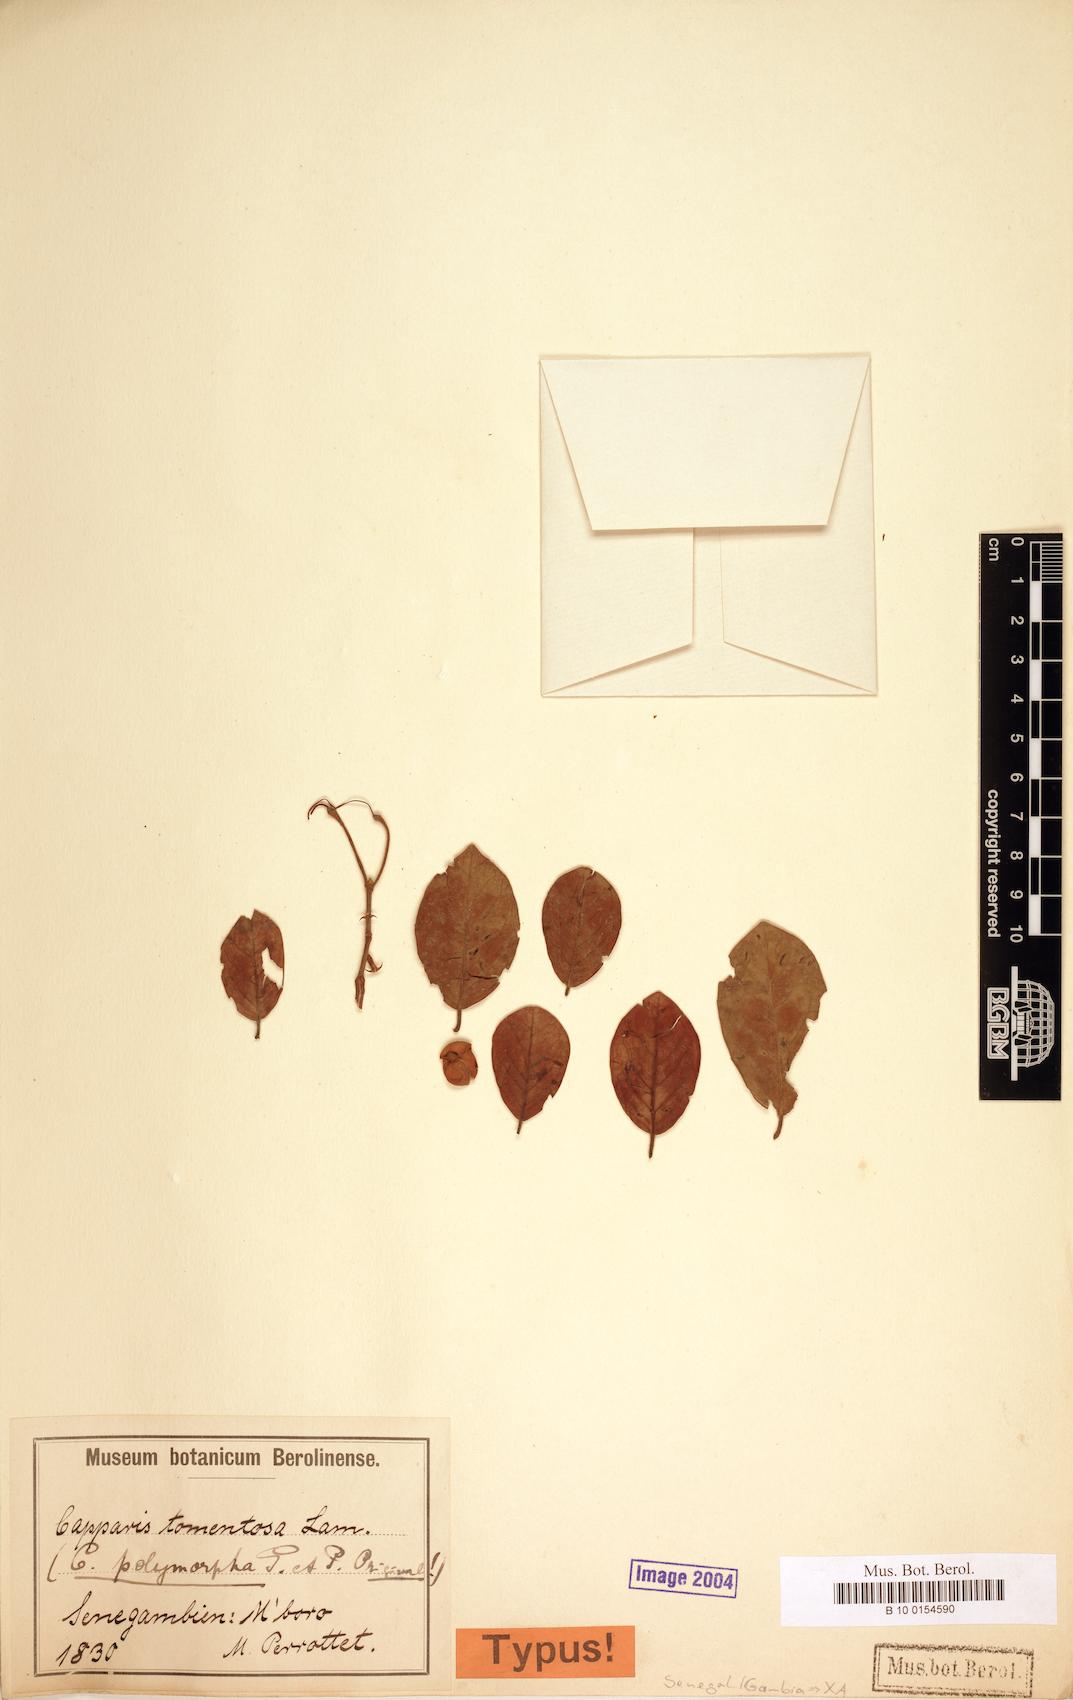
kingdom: Plantae
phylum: Tracheophyta
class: Magnoliopsida
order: Brassicales
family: Capparaceae
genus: Capparis
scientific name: Capparis tomentosa
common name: African caper
